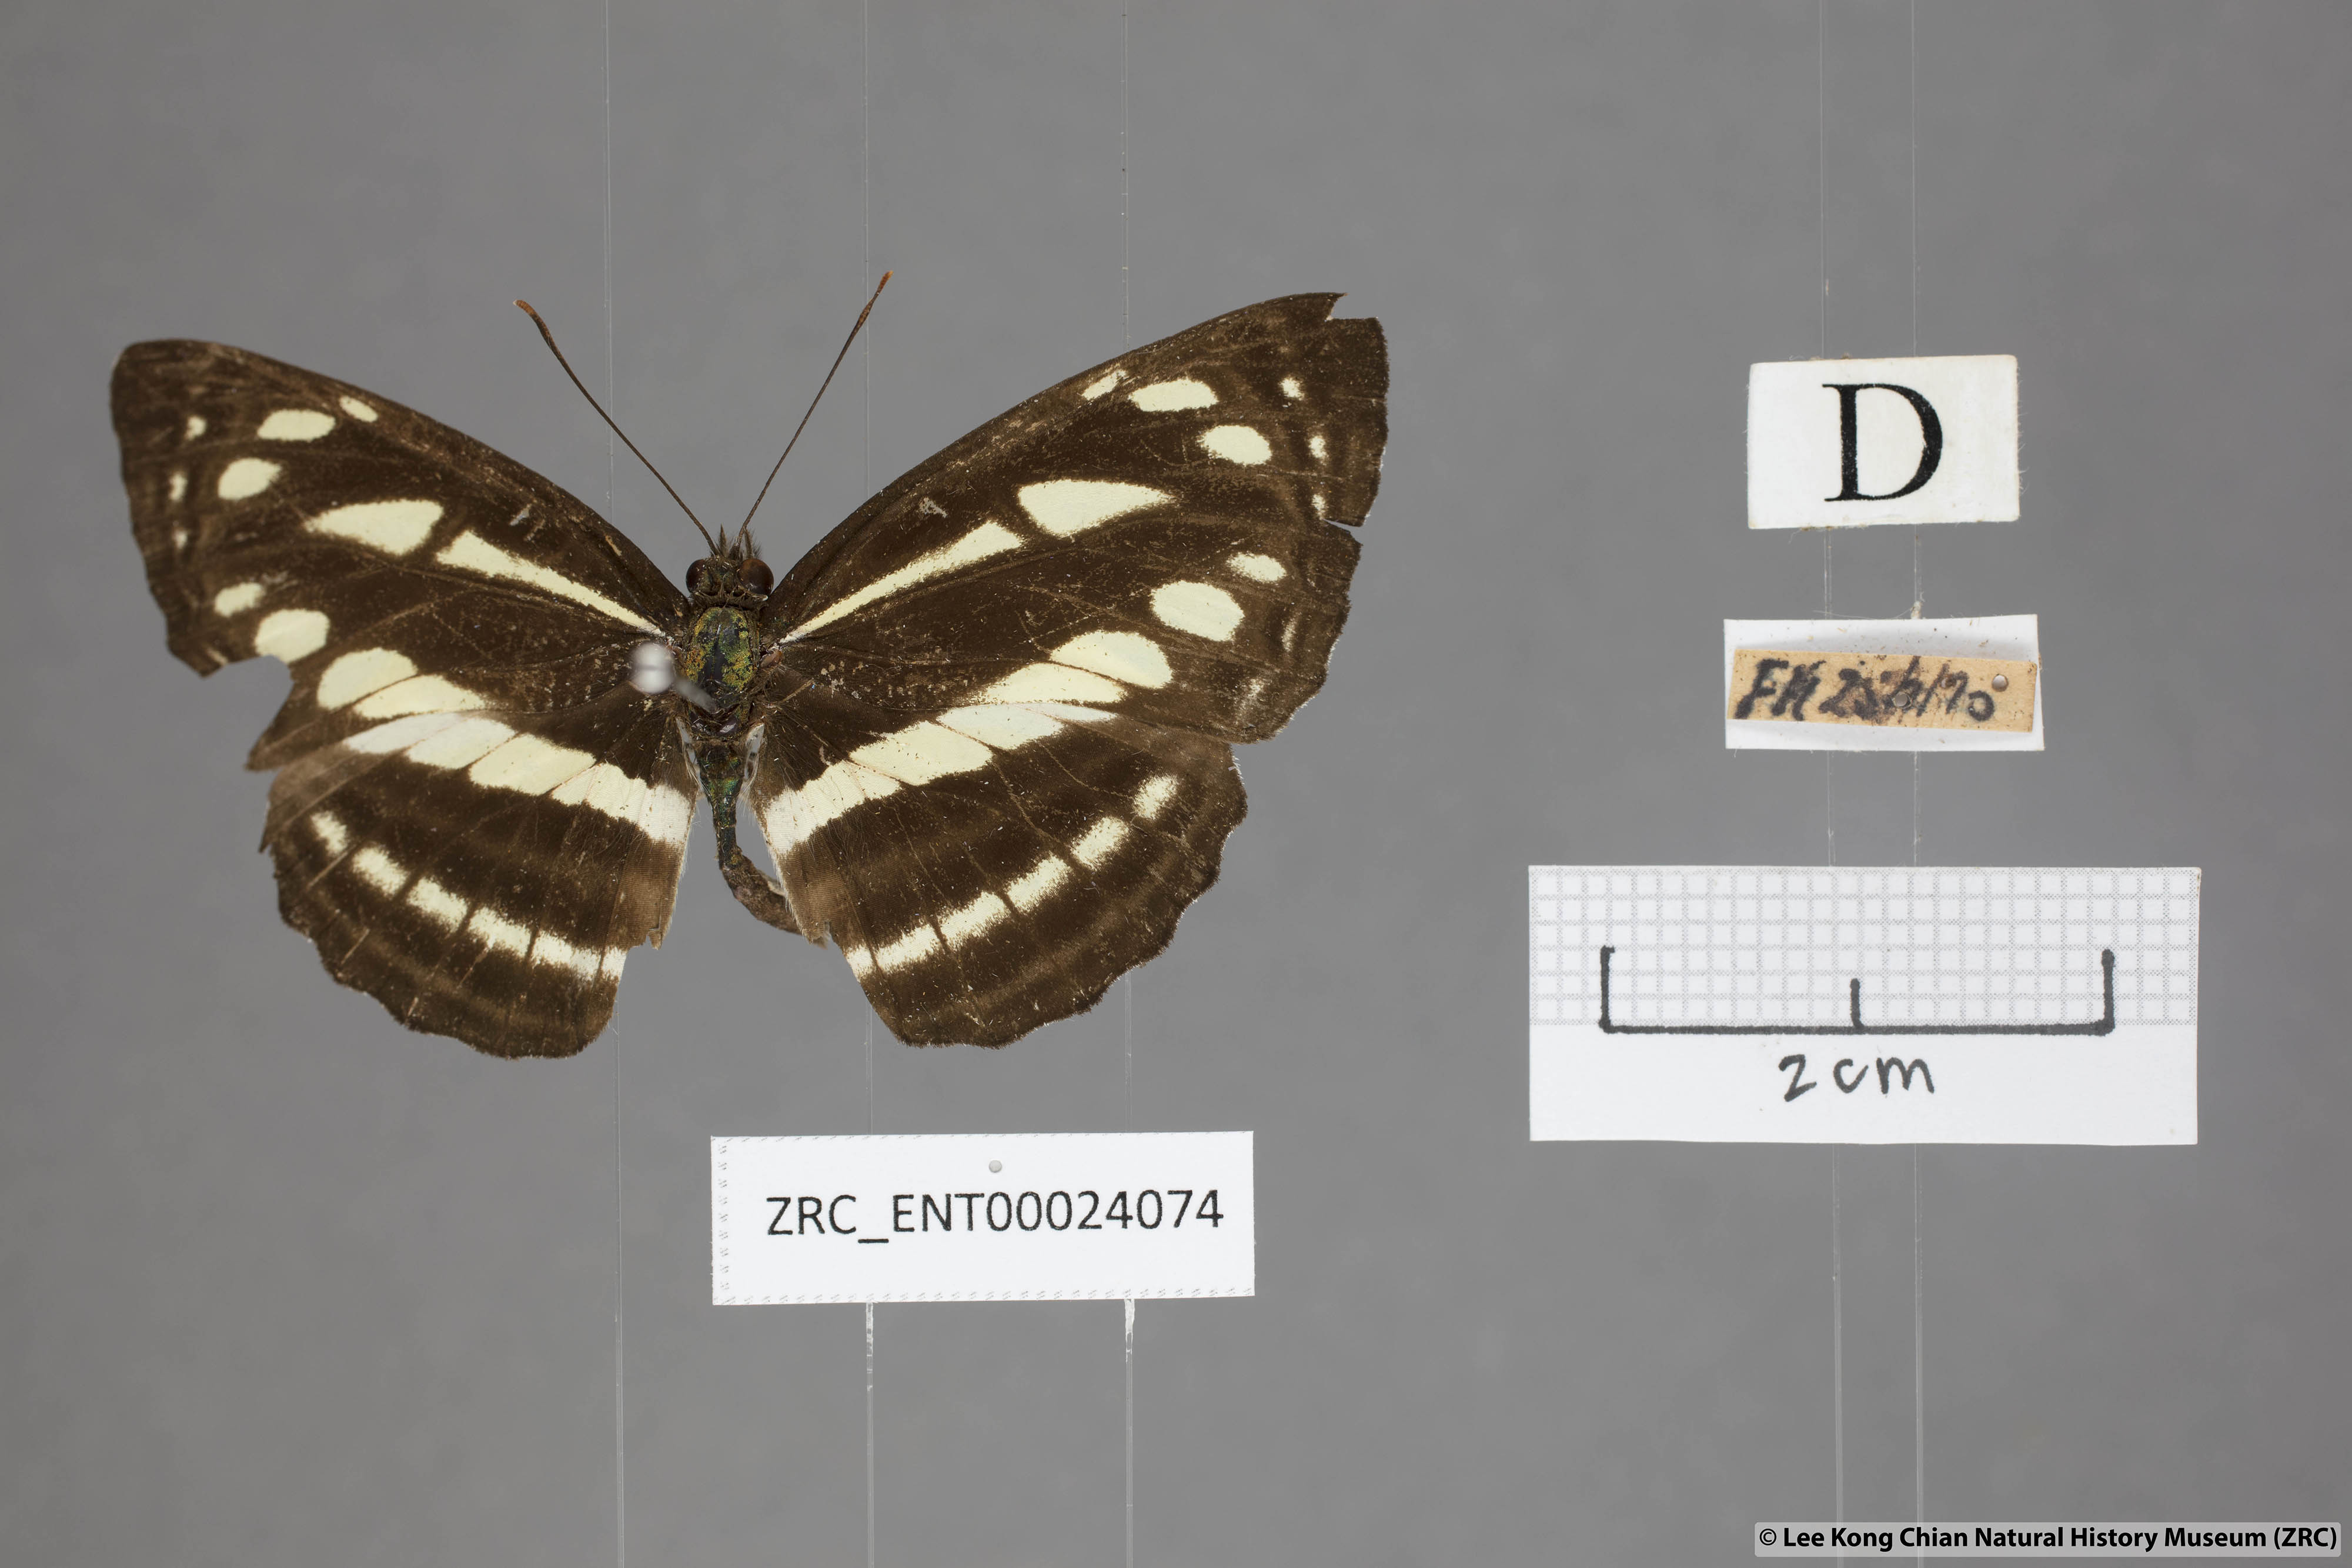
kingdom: Animalia
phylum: Arthropoda
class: Insecta
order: Lepidoptera
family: Nymphalidae
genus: Neptis
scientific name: Neptis soma
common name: Cream-spotted sailor
